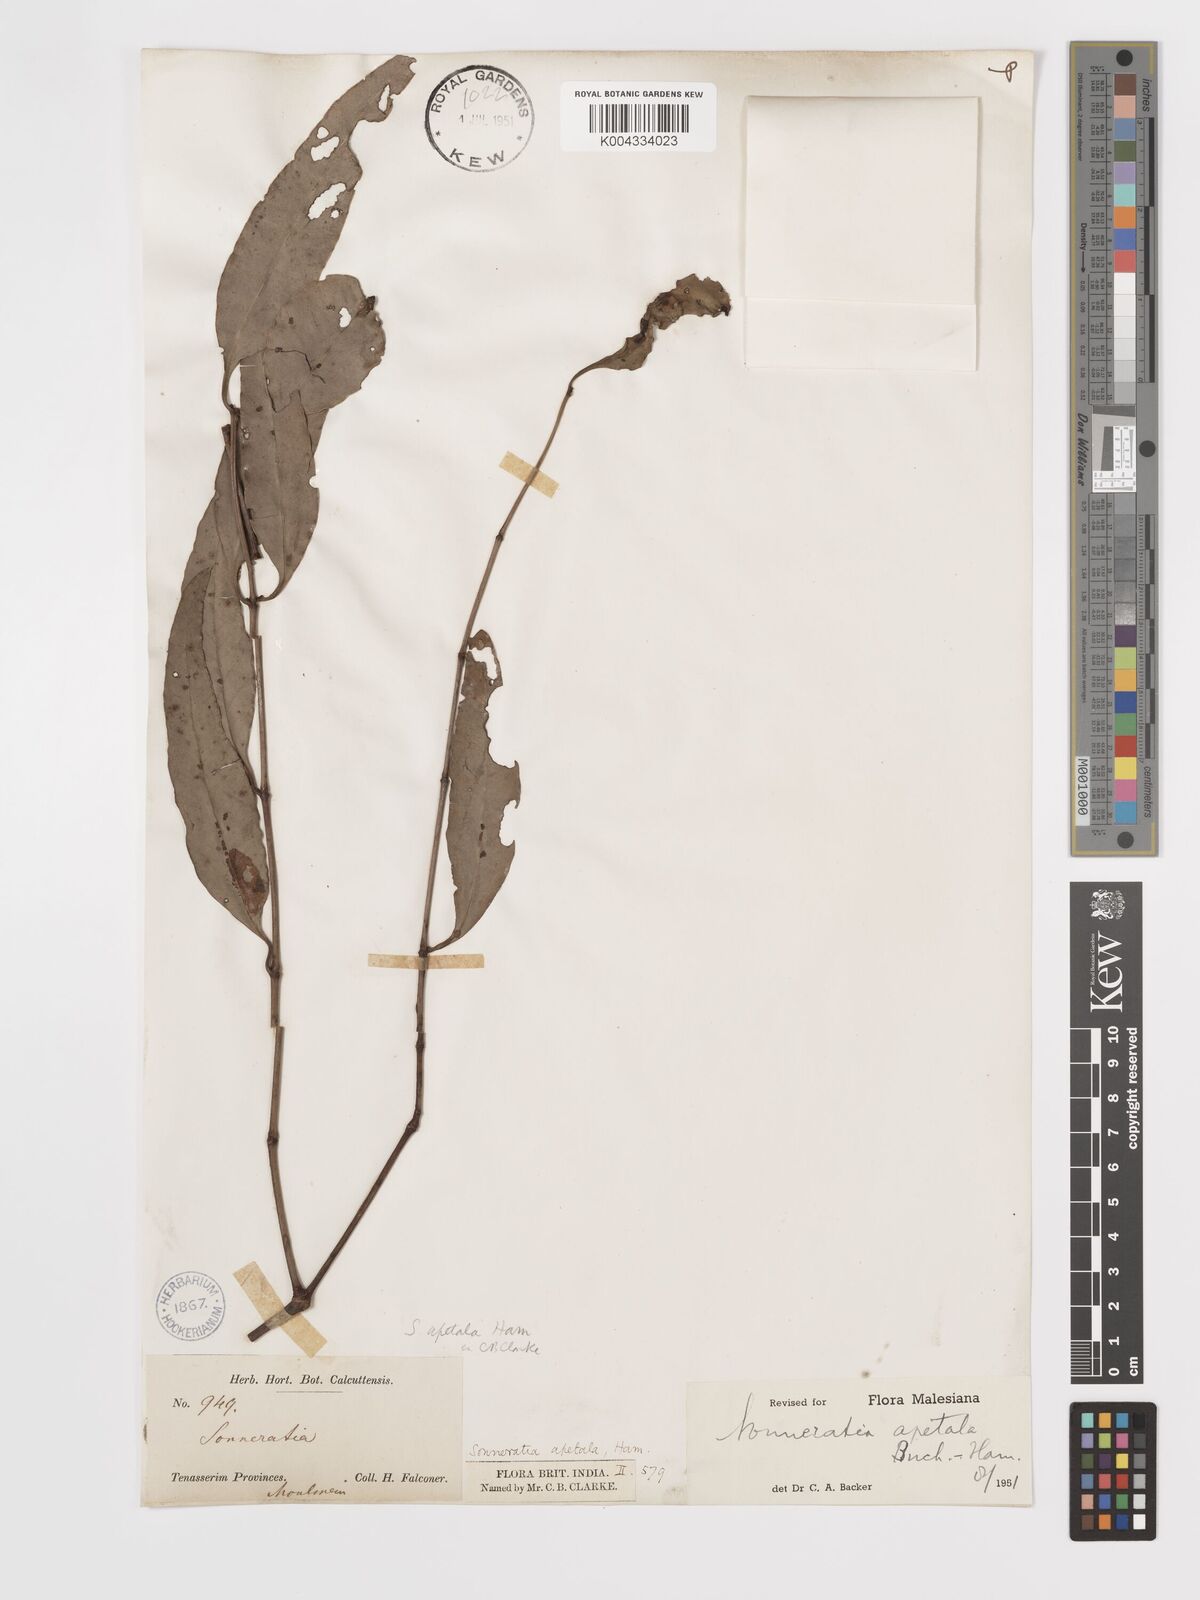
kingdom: Plantae
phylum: Tracheophyta
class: Magnoliopsida
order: Myrtales
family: Lythraceae
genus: Sonneratia
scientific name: Sonneratia apetala
